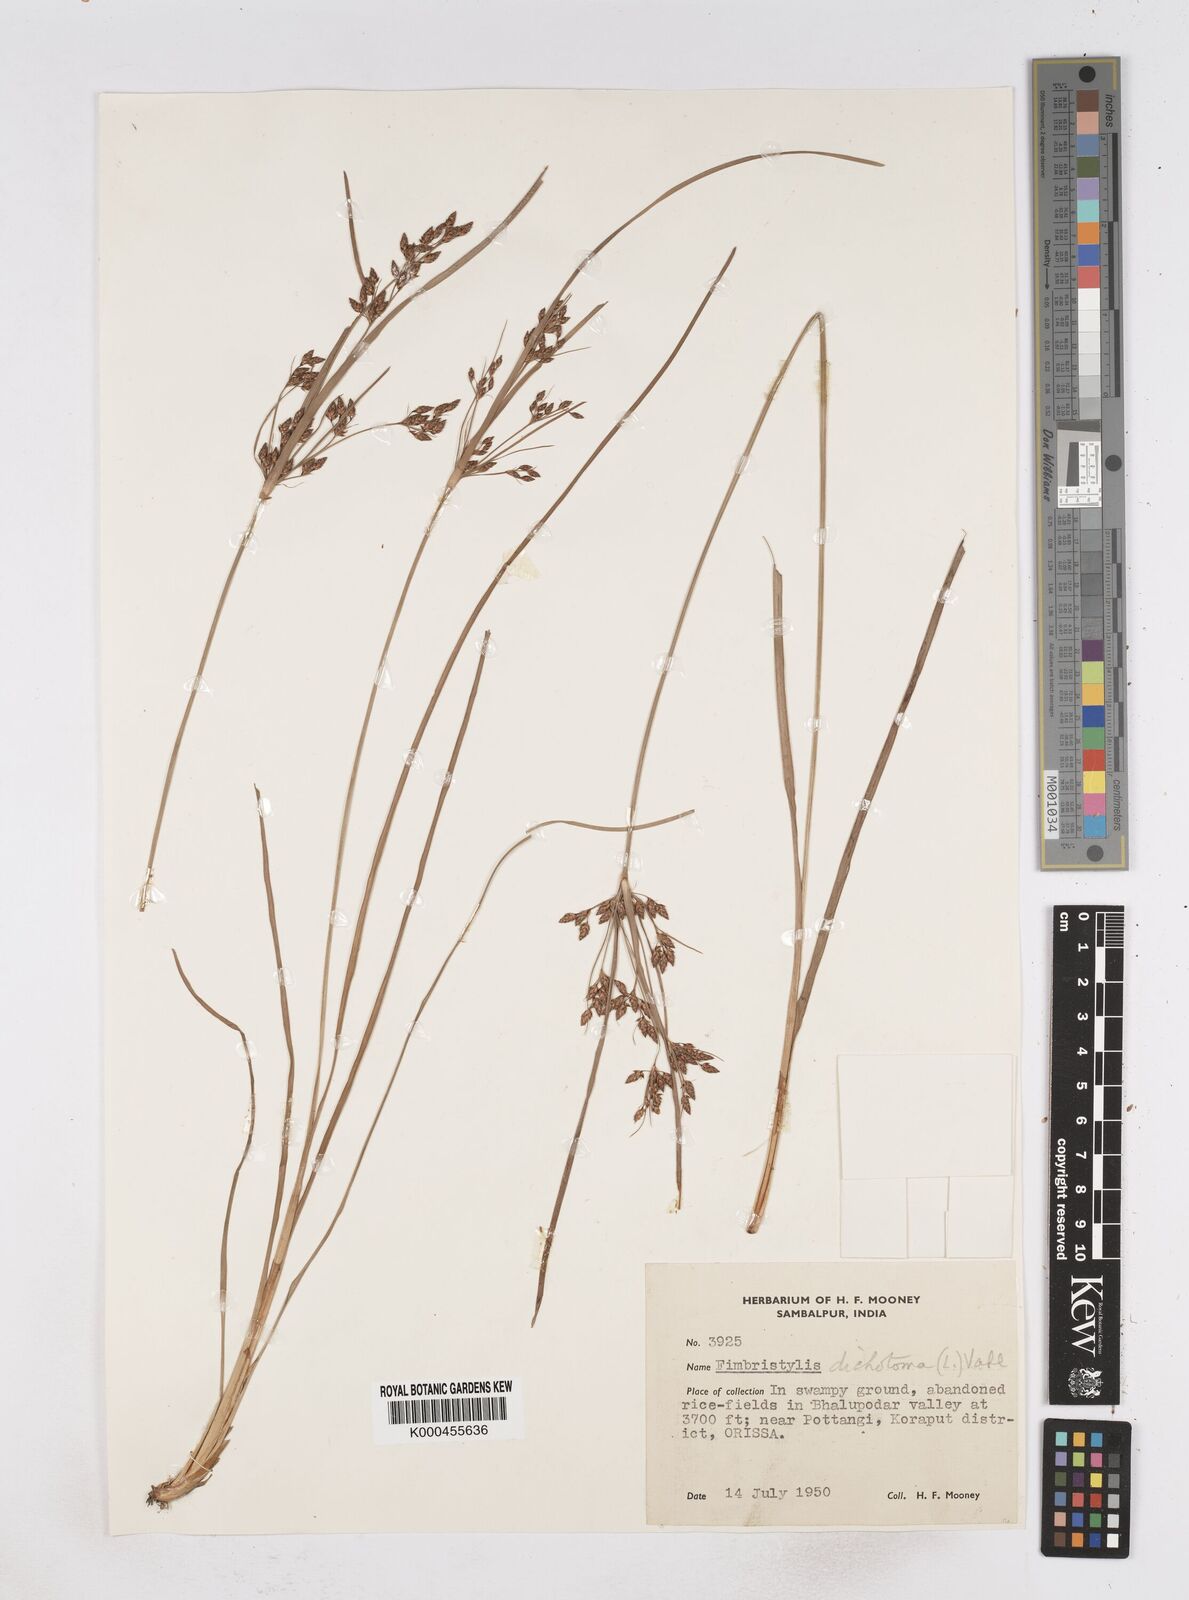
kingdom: Plantae
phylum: Tracheophyta
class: Liliopsida
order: Poales
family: Cyperaceae
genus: Fimbristylis
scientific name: Fimbristylis dichotoma
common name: Forked fimbry
